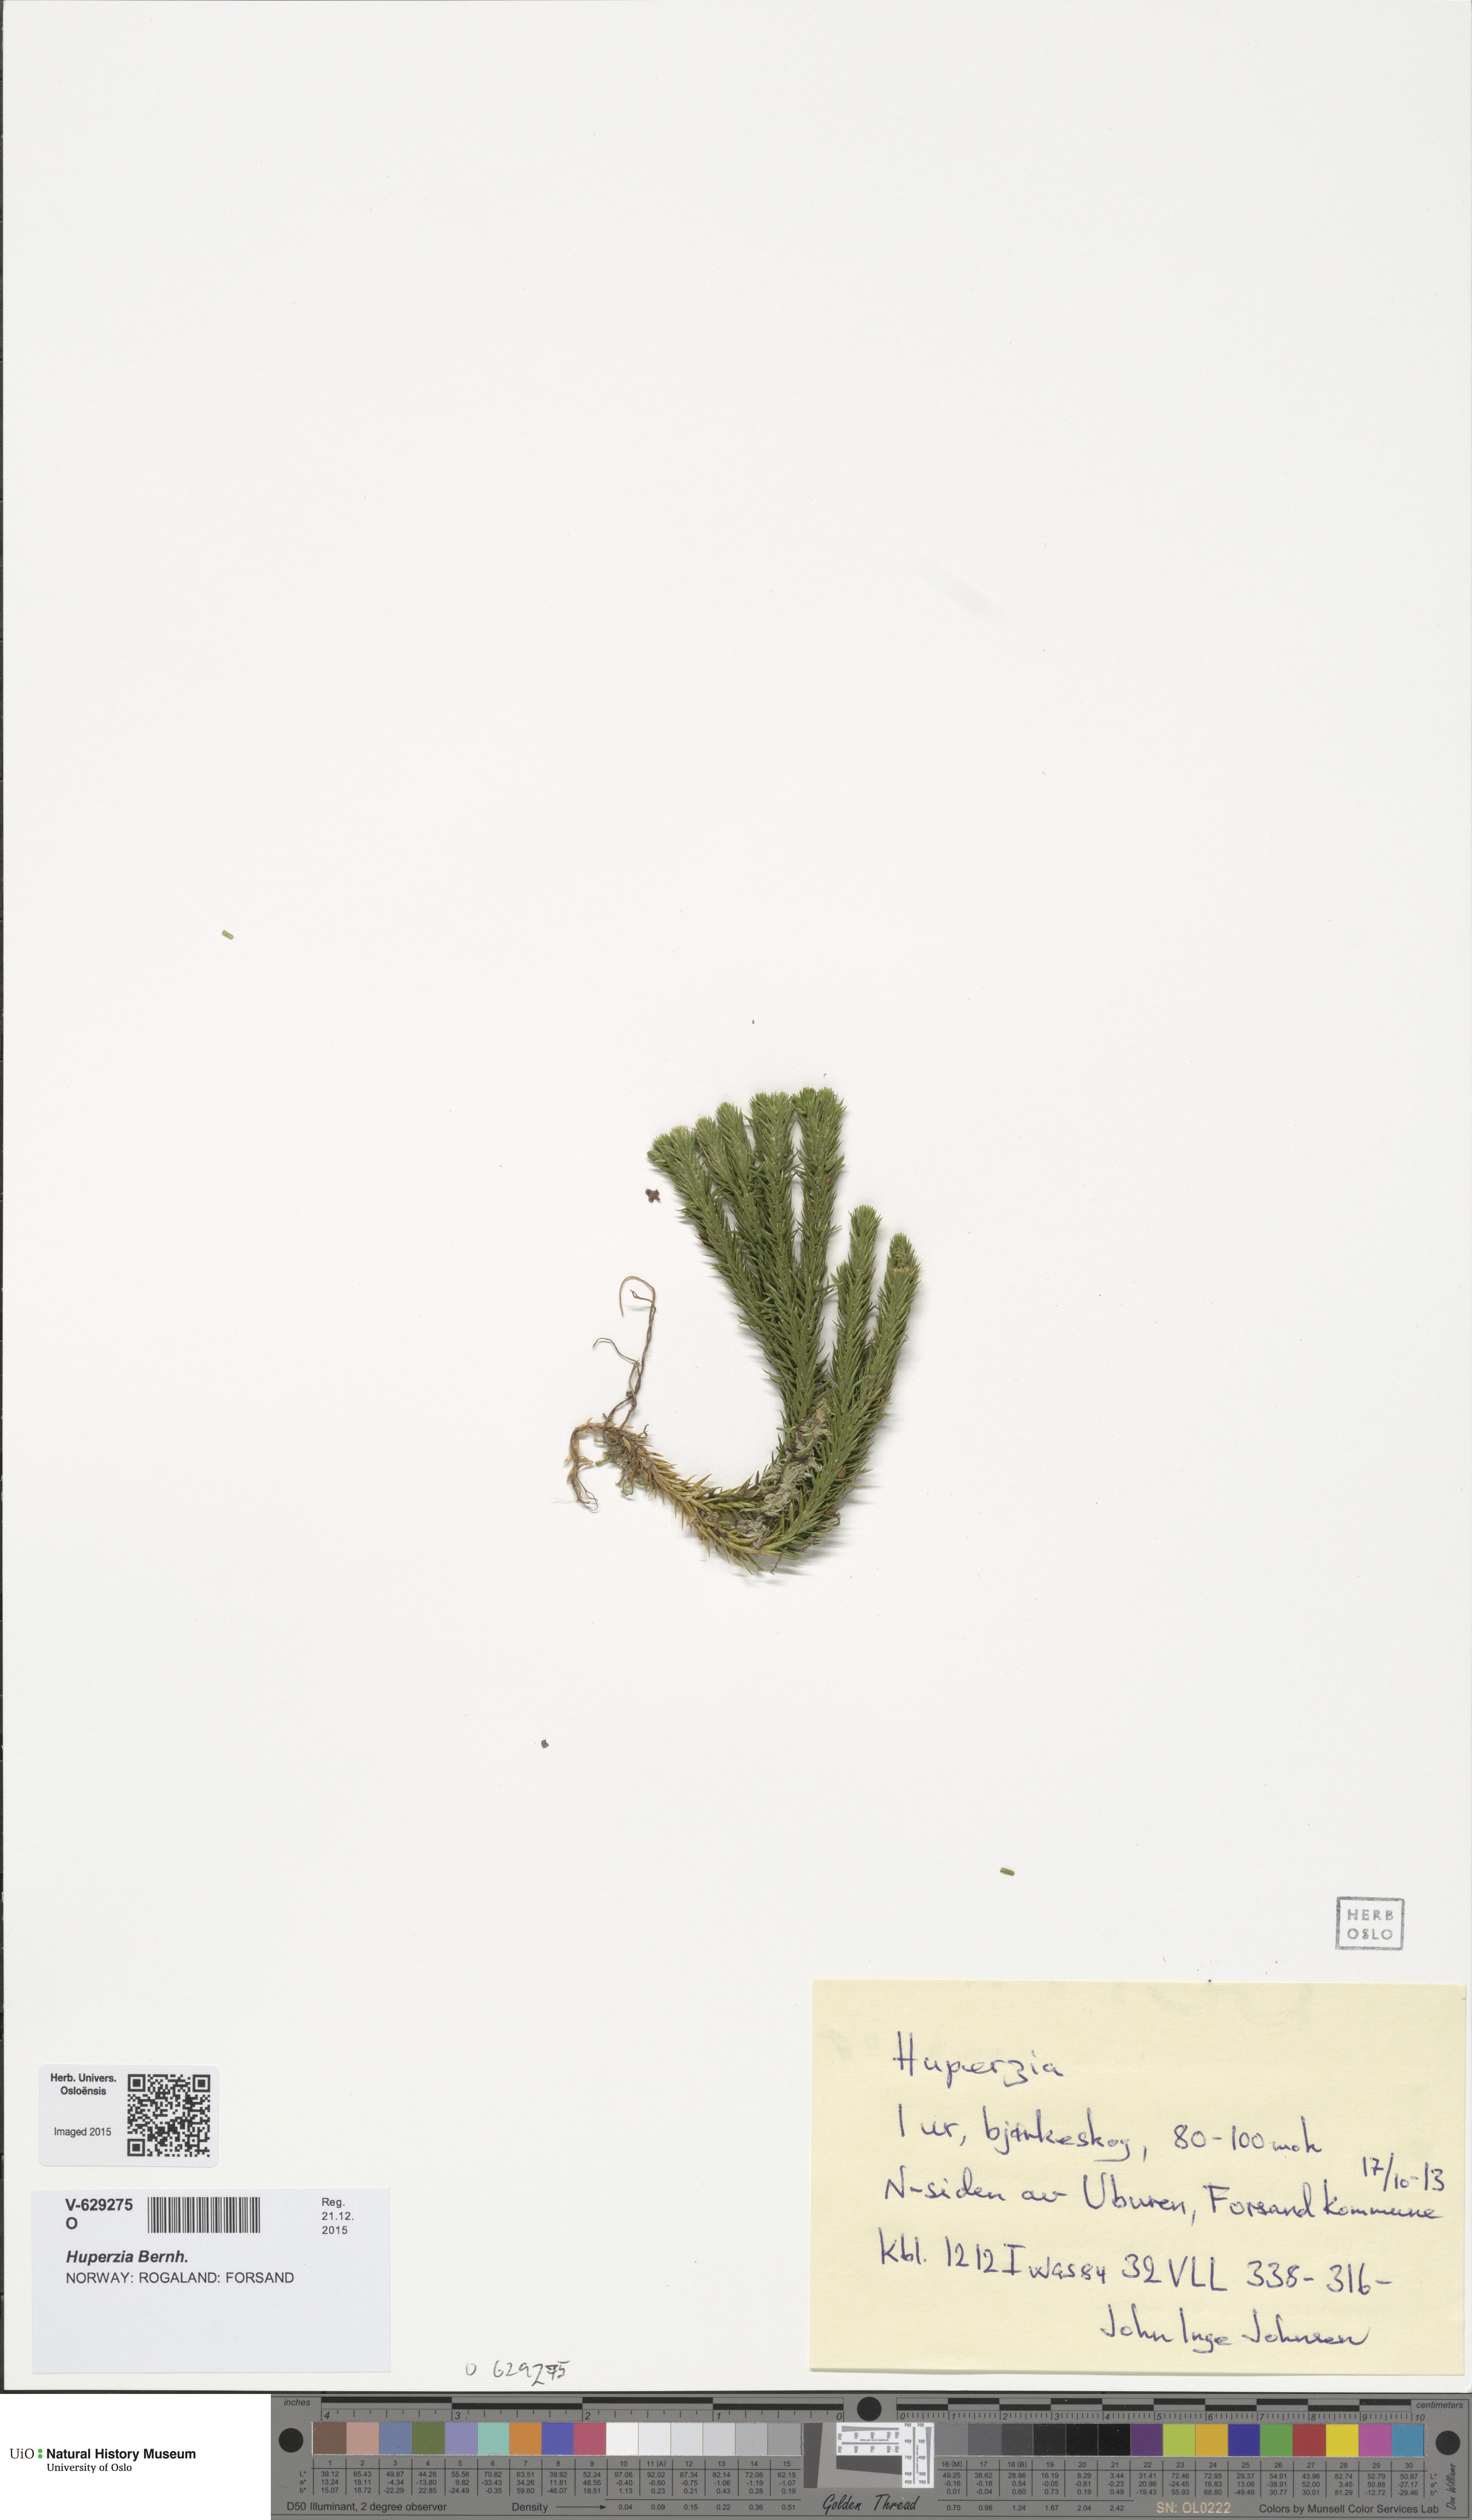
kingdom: Plantae
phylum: Tracheophyta
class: Lycopodiopsida
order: Lycopodiales
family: Lycopodiaceae
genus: Huperzia
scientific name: Huperzia
